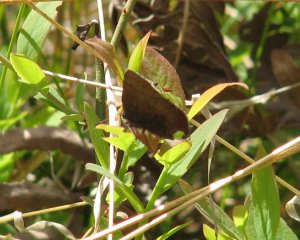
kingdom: Animalia
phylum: Arthropoda
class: Insecta
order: Lepidoptera
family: Lycaenidae
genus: Incisalia
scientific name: Incisalia irioides
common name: Brown Elfin
